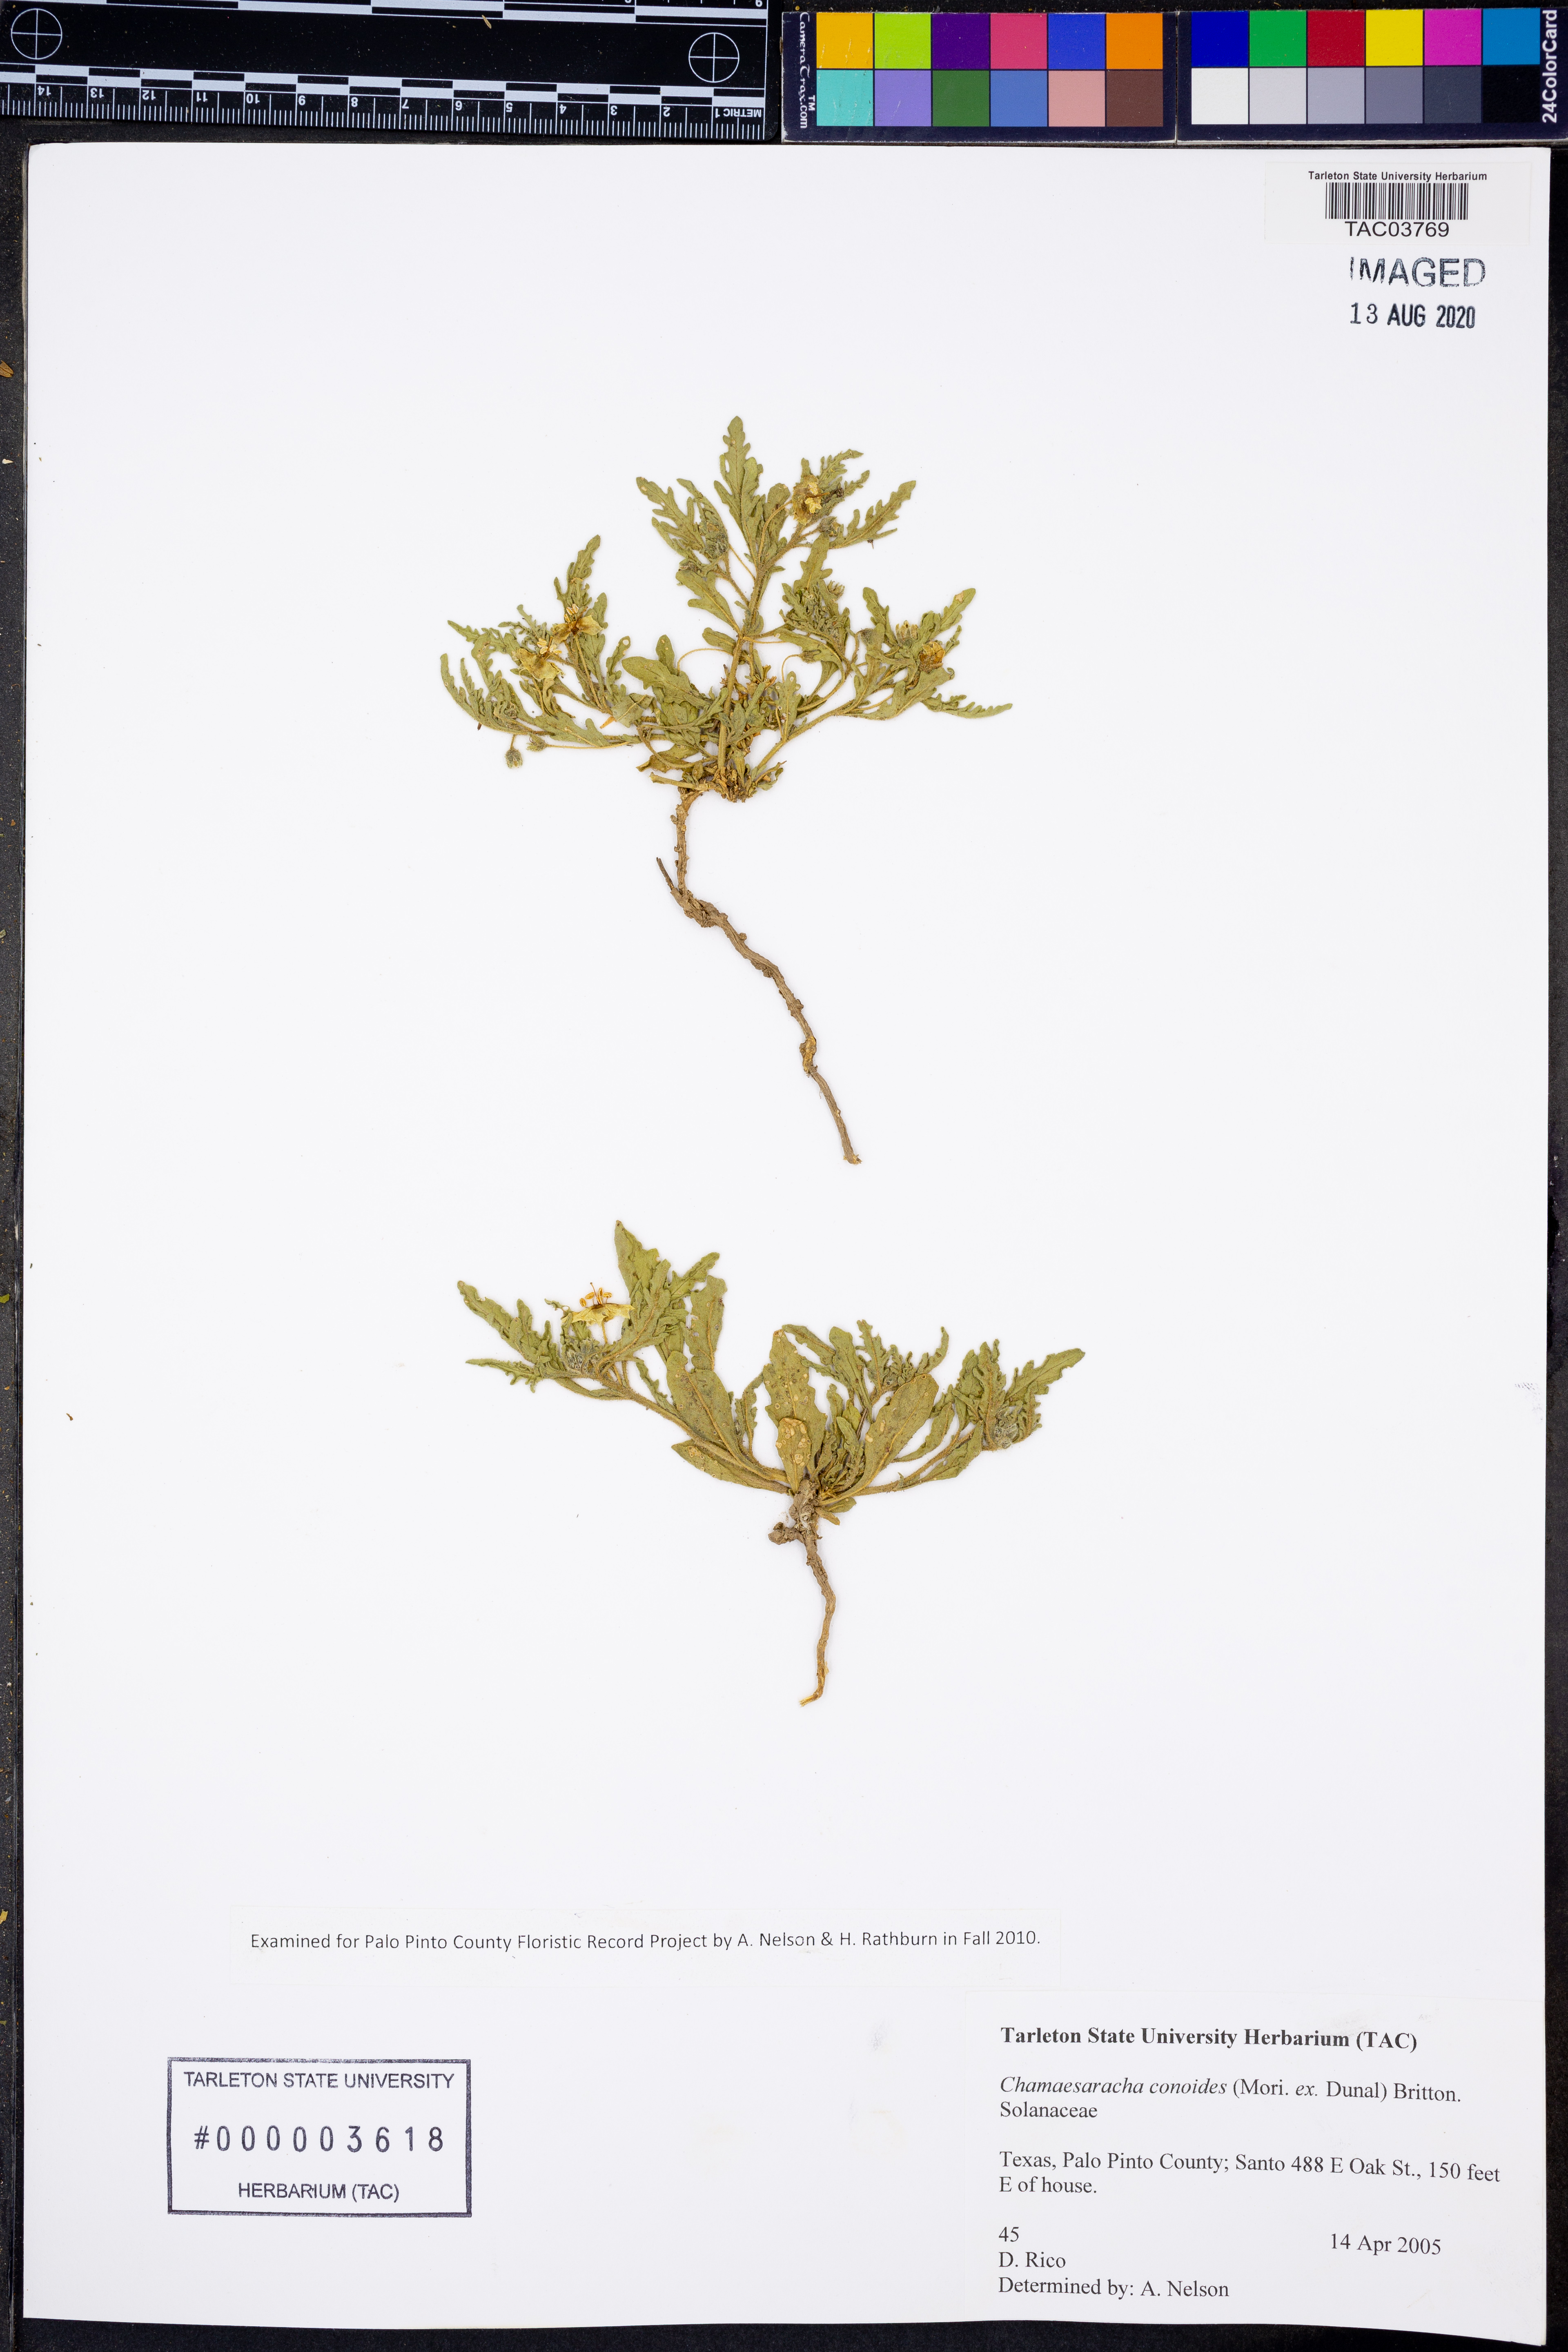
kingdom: Plantae
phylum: Tracheophyta
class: Magnoliopsida
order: Solanales
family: Solanaceae
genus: Chamaesaracha
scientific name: Chamaesaracha coniodes
